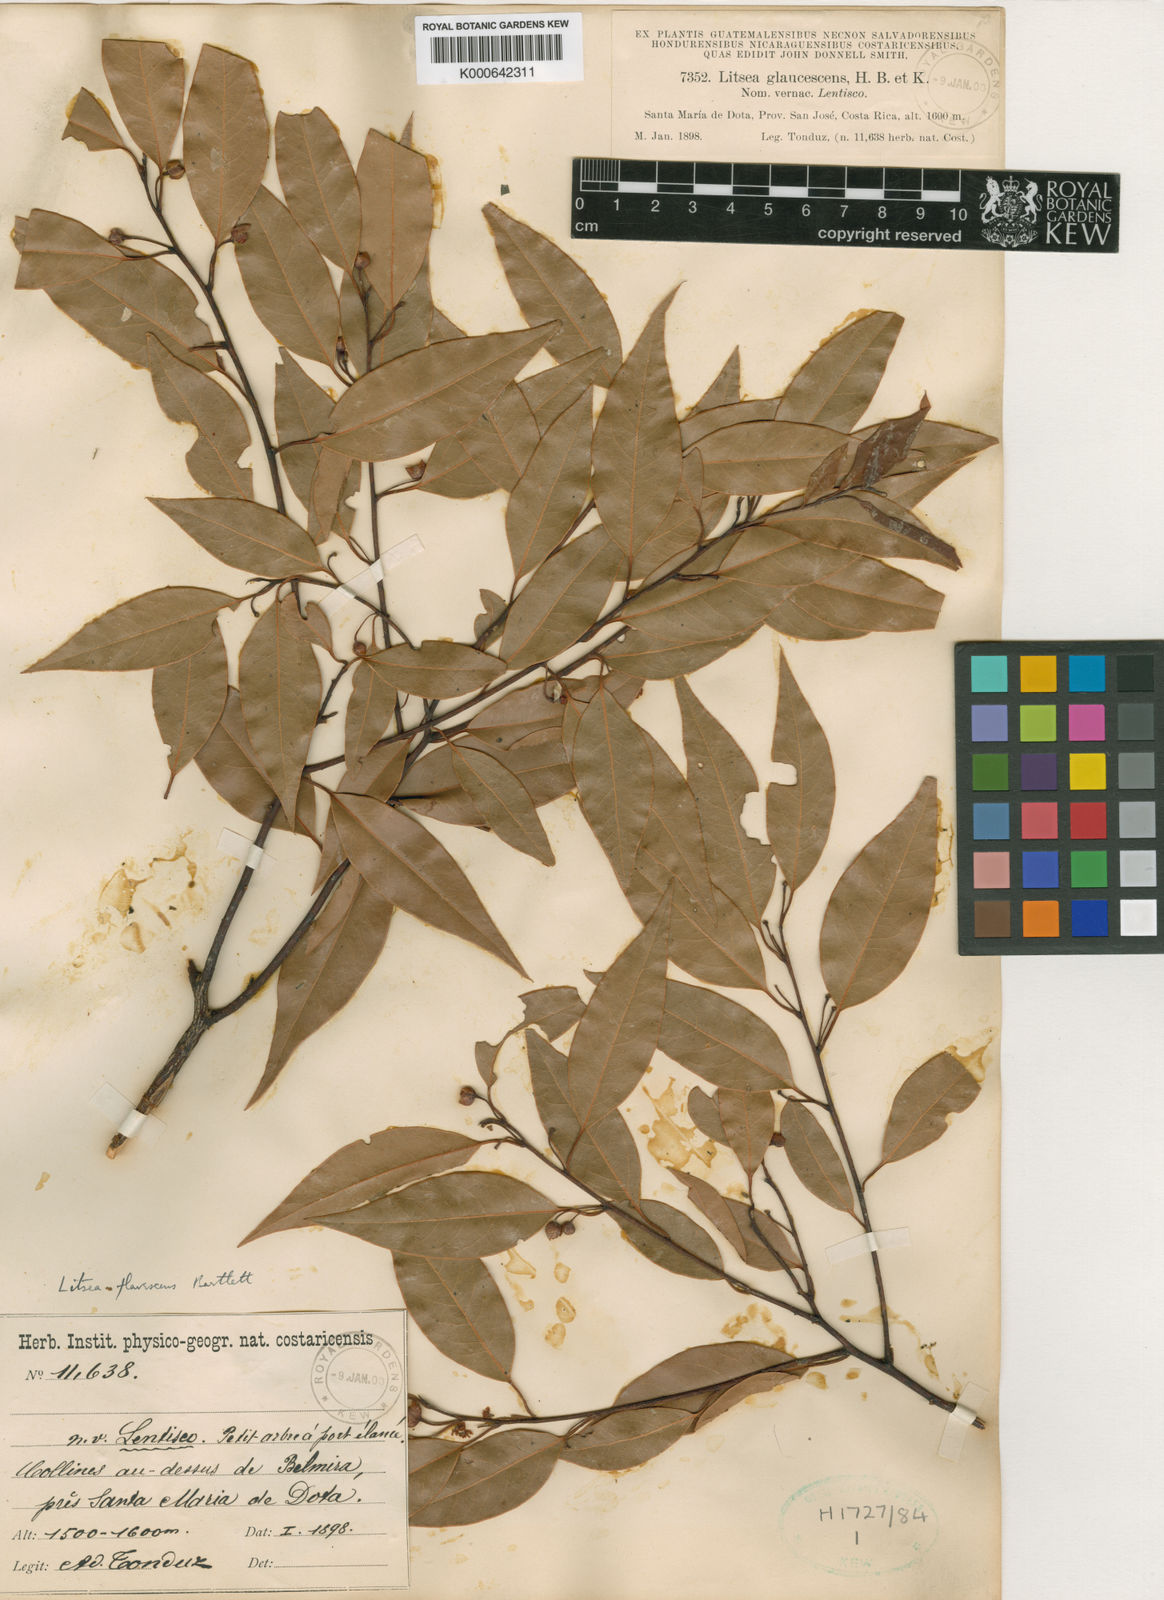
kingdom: Plantae
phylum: Tracheophyta
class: Magnoliopsida
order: Laurales
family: Lauraceae
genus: Licaria
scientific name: Licaria triandra
